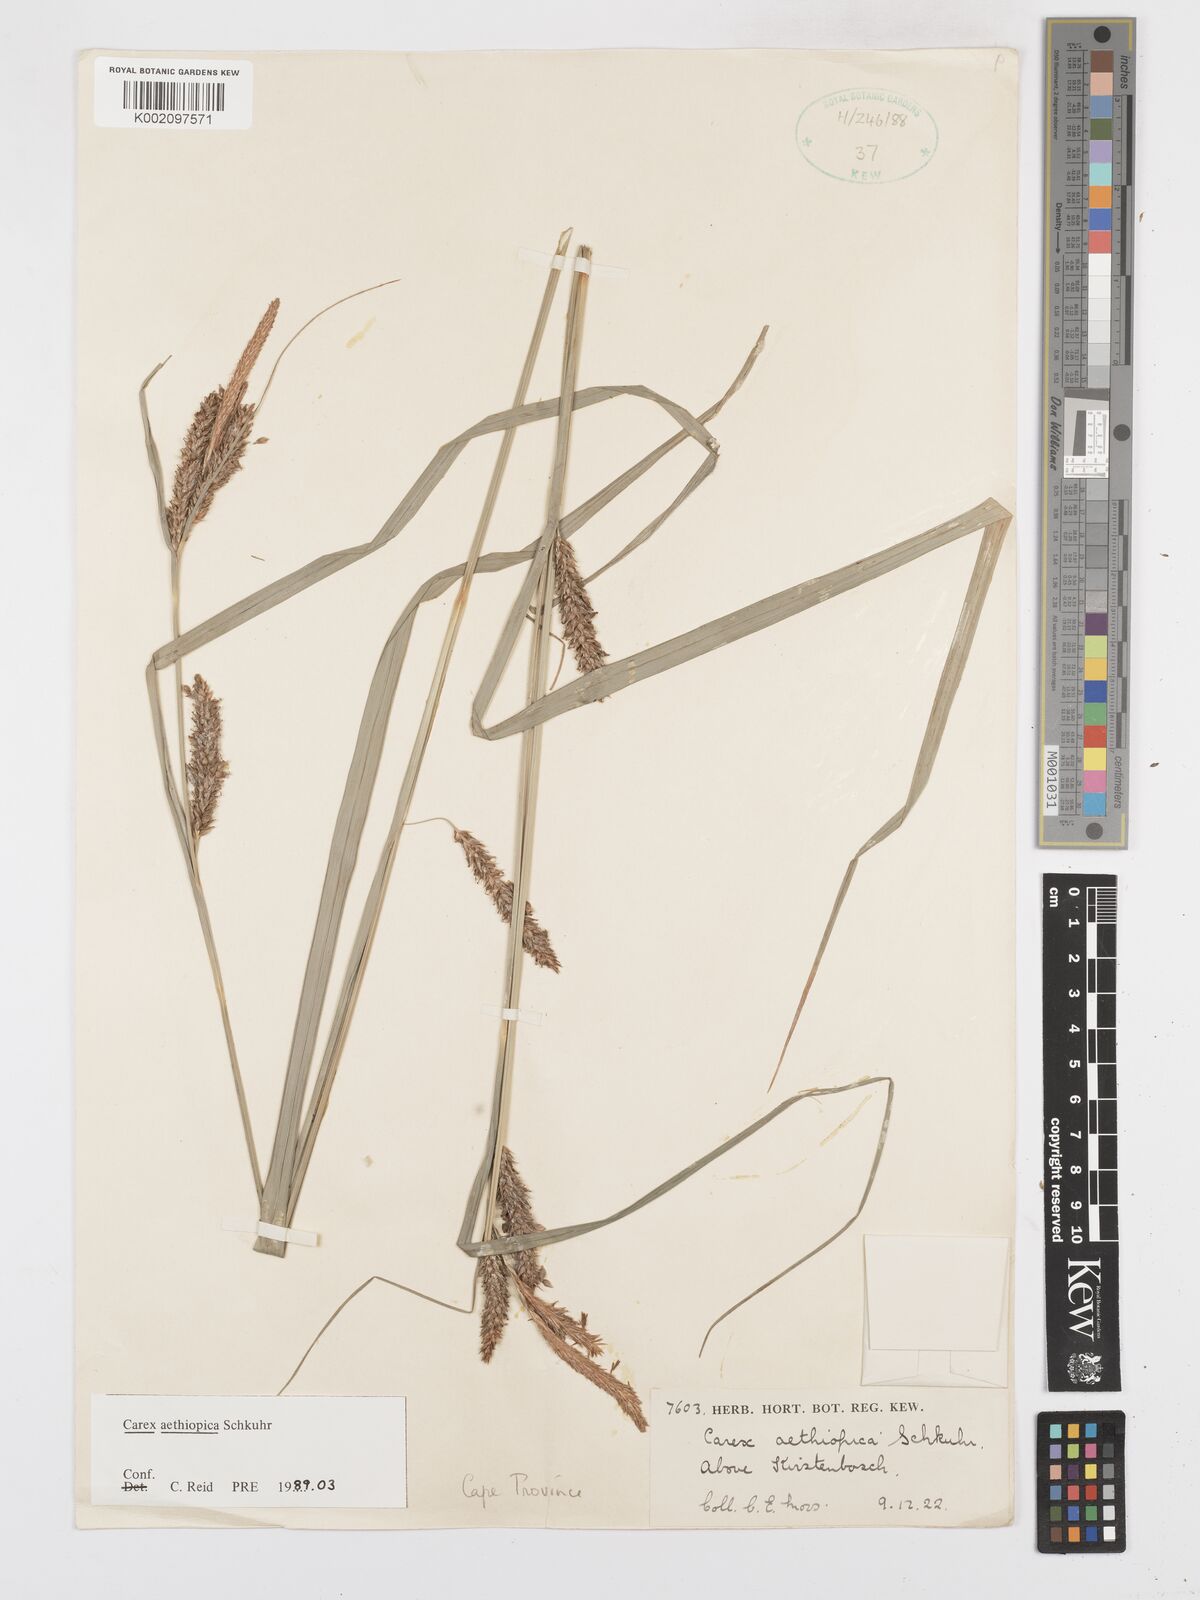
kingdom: Plantae
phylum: Tracheophyta
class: Liliopsida
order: Poales
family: Cyperaceae
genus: Carex
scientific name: Carex aethiopica
